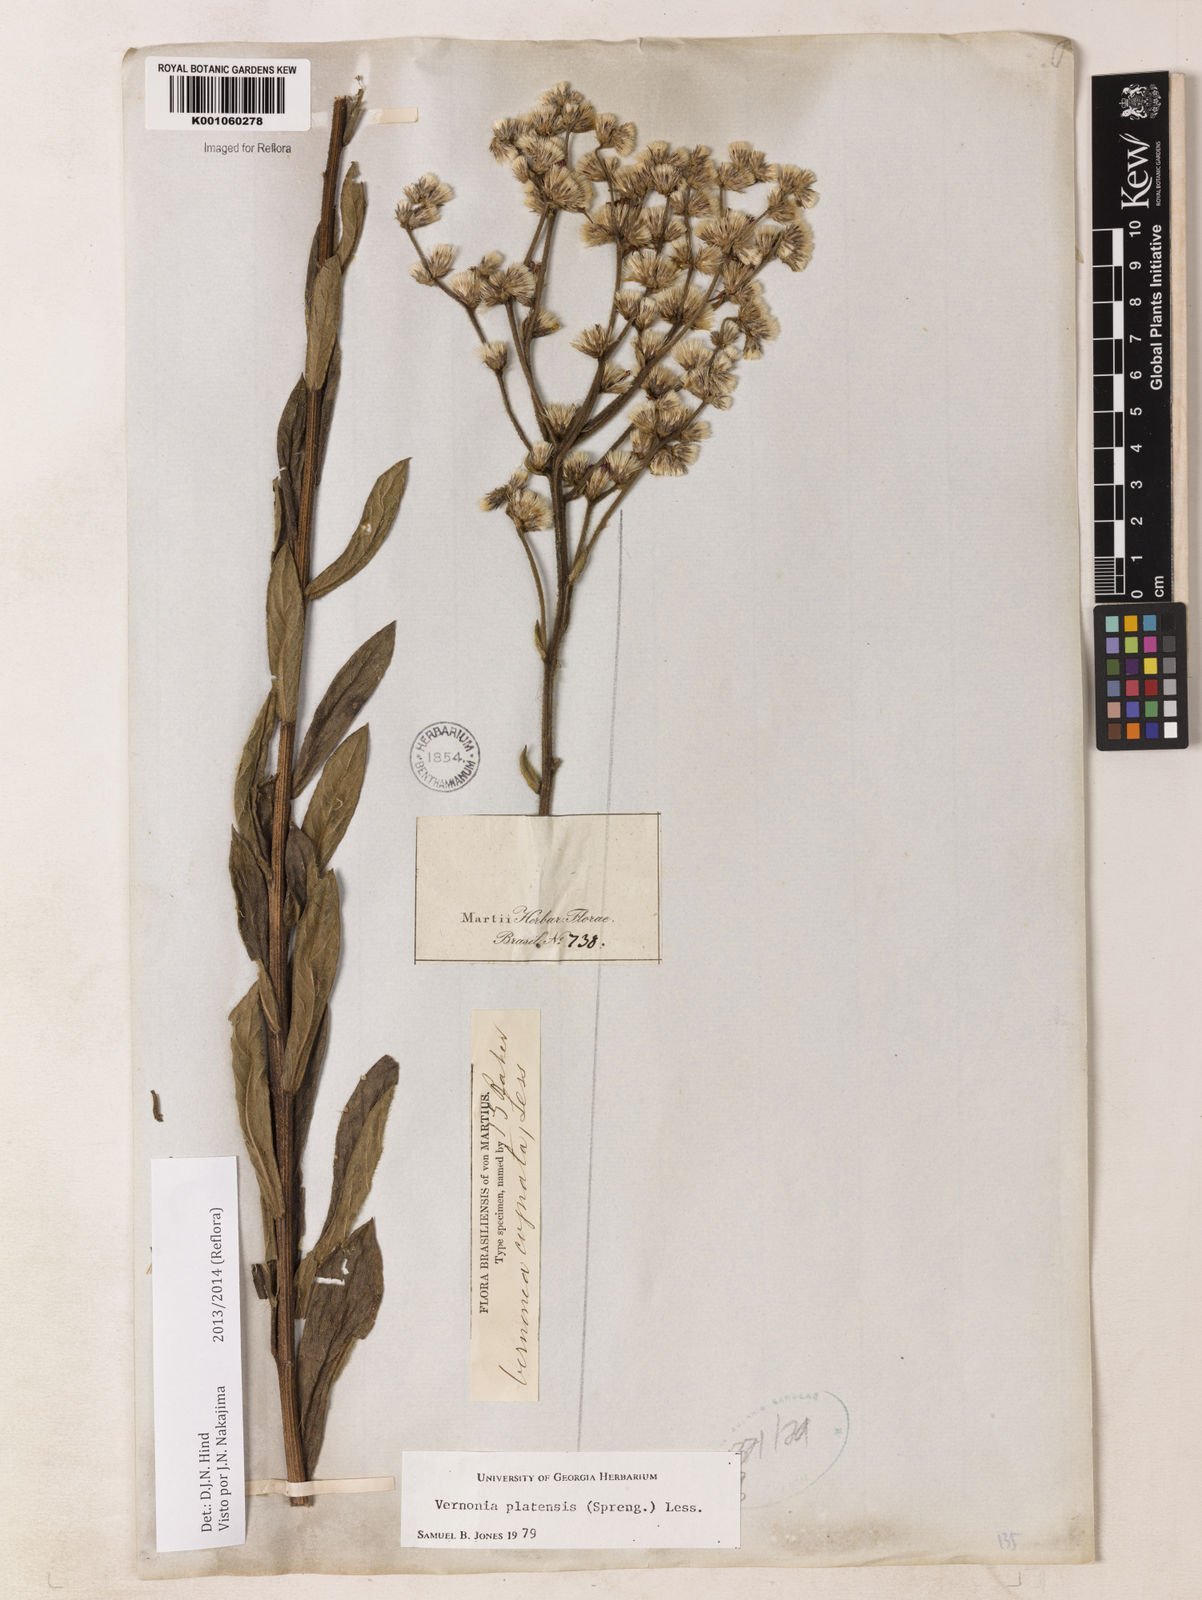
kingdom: Plantae
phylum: Tracheophyta
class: Magnoliopsida
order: Asterales
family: Asteraceae
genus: Chrysolaena
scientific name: Chrysolaena platensis
